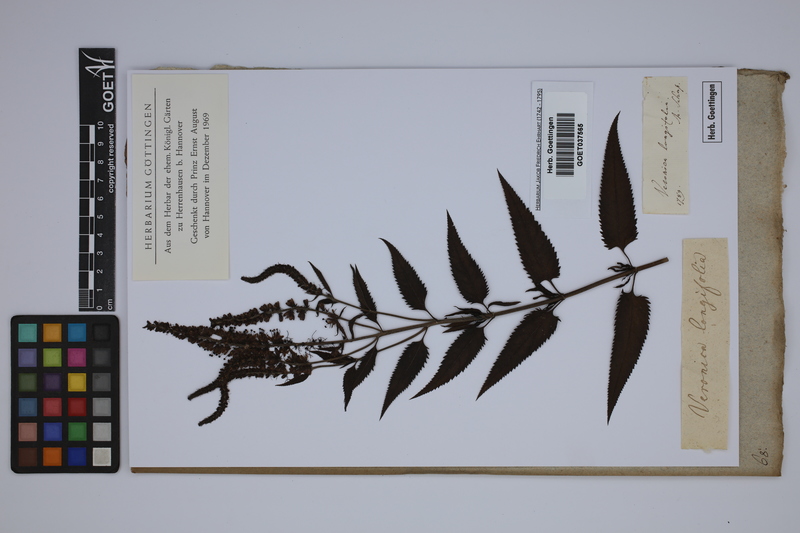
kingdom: Plantae
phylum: Tracheophyta
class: Magnoliopsida
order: Lamiales
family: Plantaginaceae
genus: Veronica
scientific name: Veronica longifolia
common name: Garden speedwell
